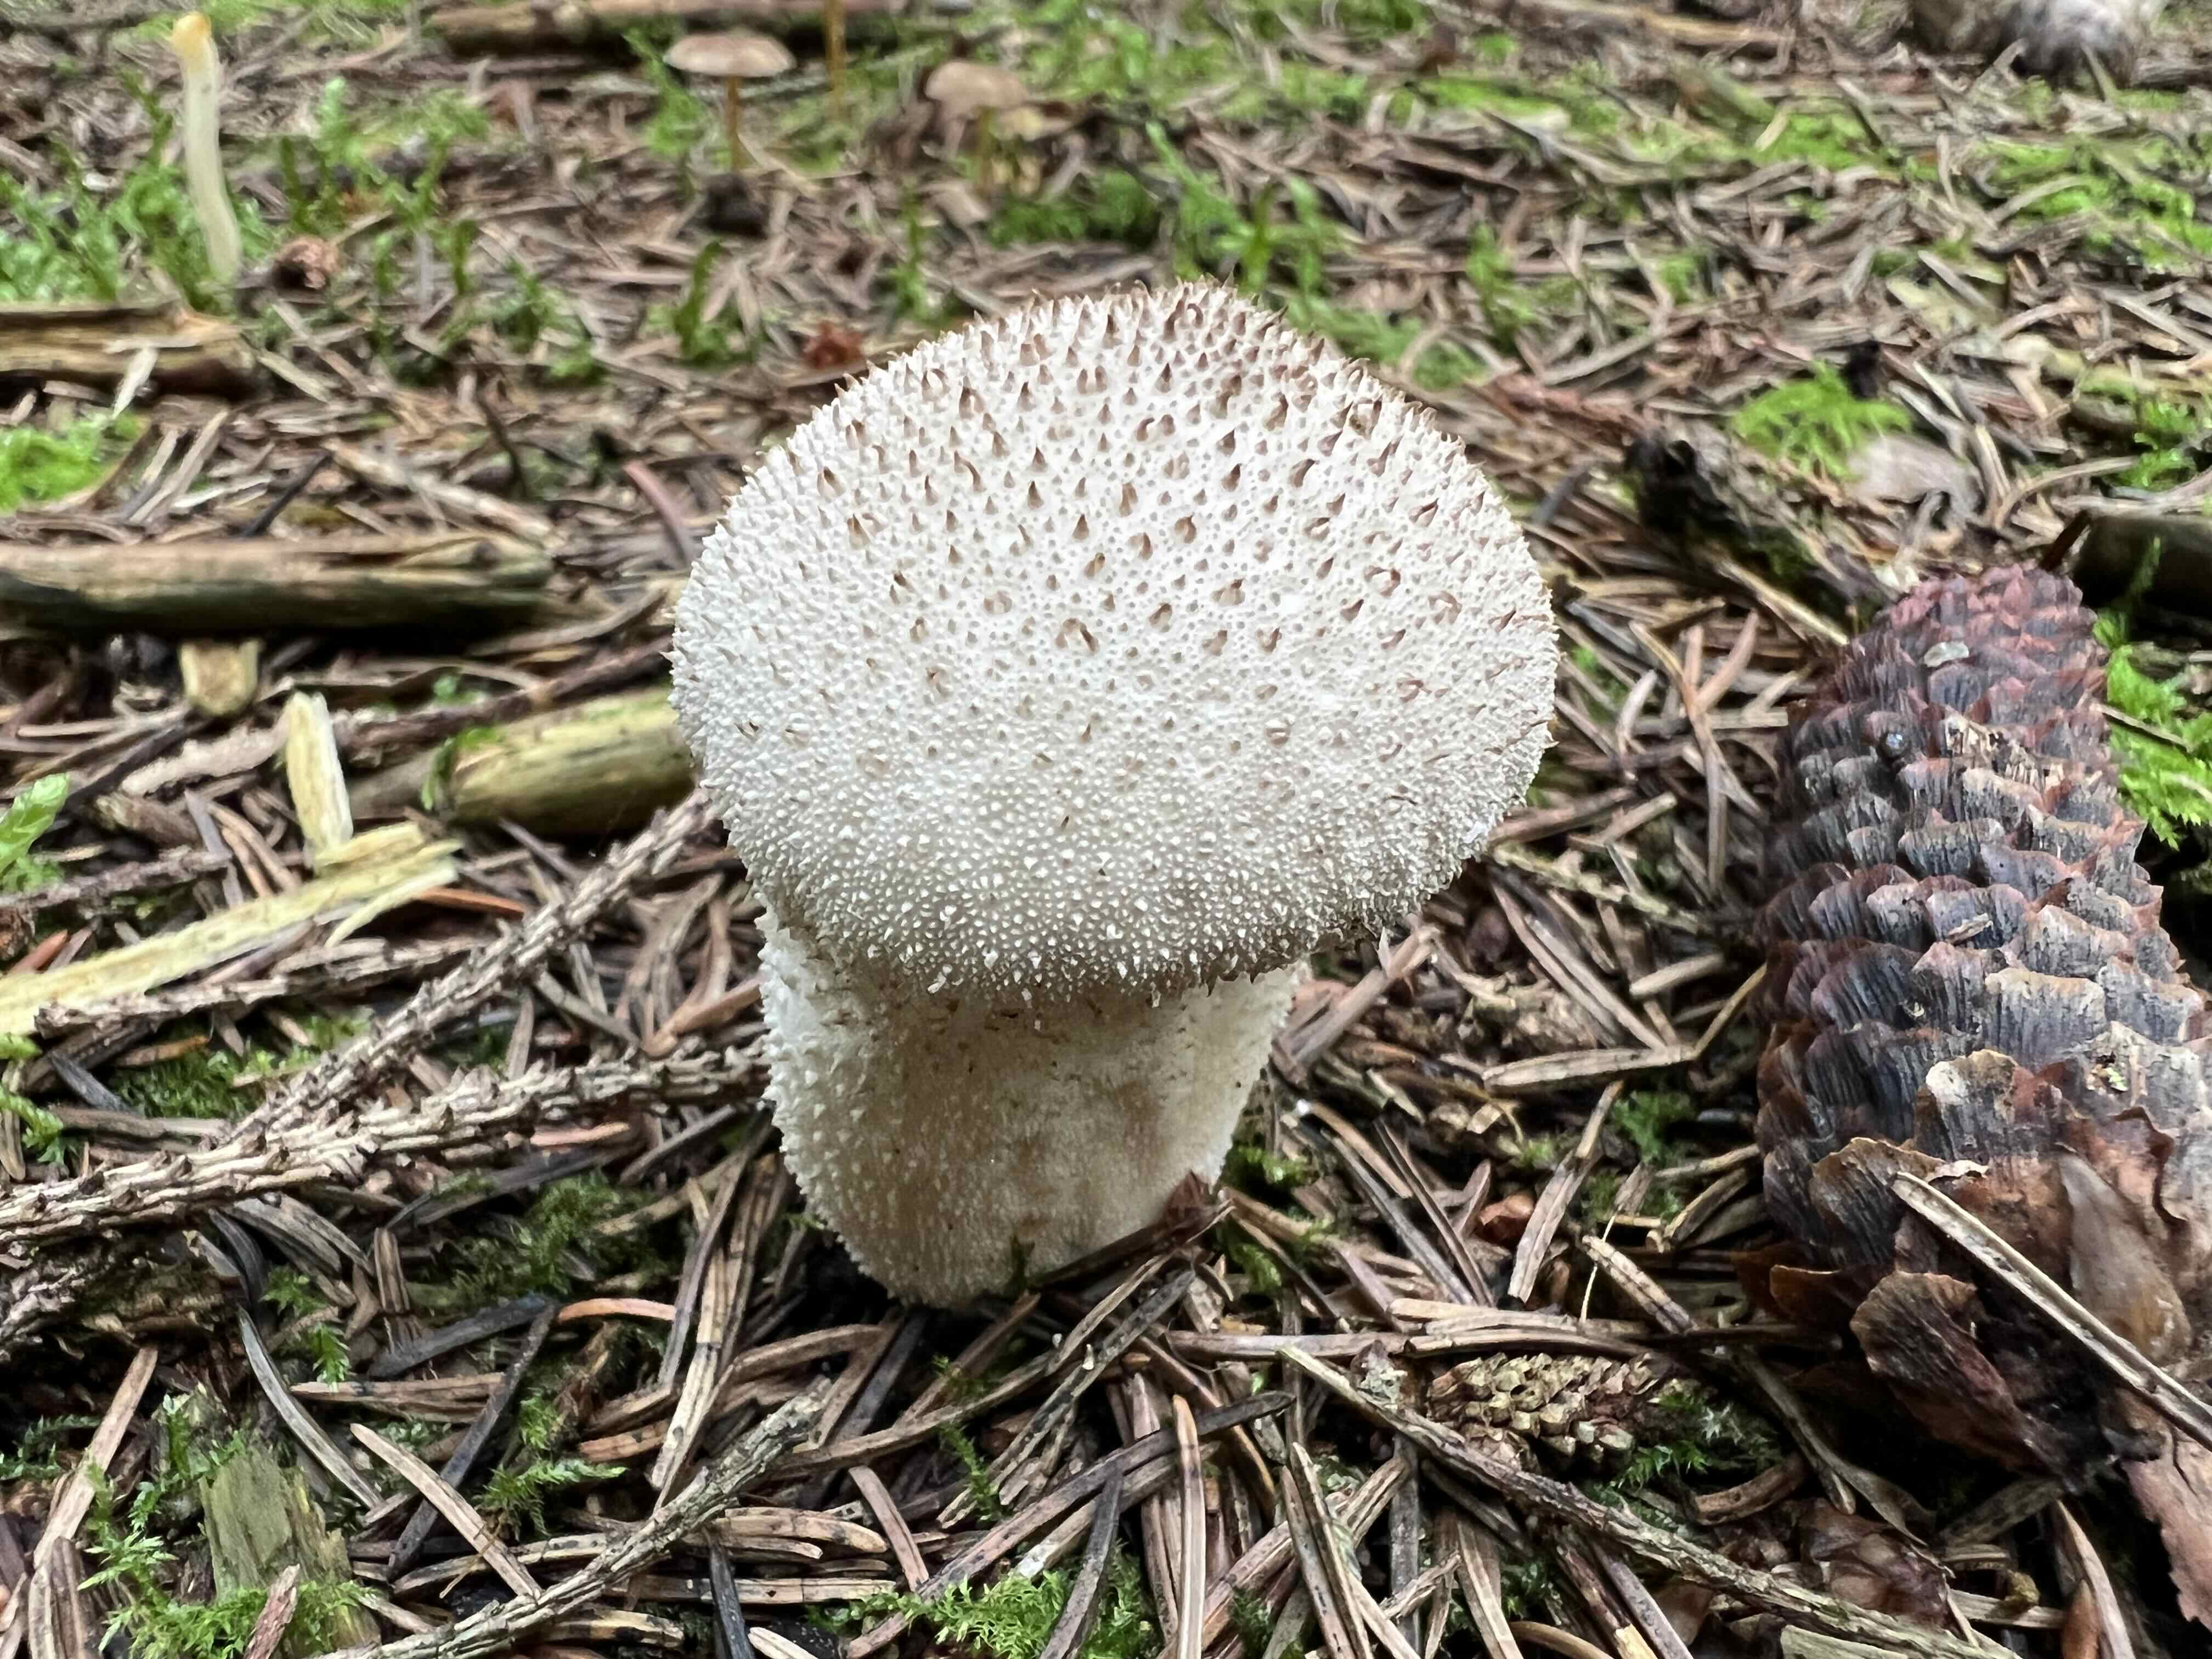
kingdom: Fungi
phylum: Basidiomycota
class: Agaricomycetes
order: Agaricales
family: Lycoperdaceae
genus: Lycoperdon
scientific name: Lycoperdon perlatum
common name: krystal-støvbold
